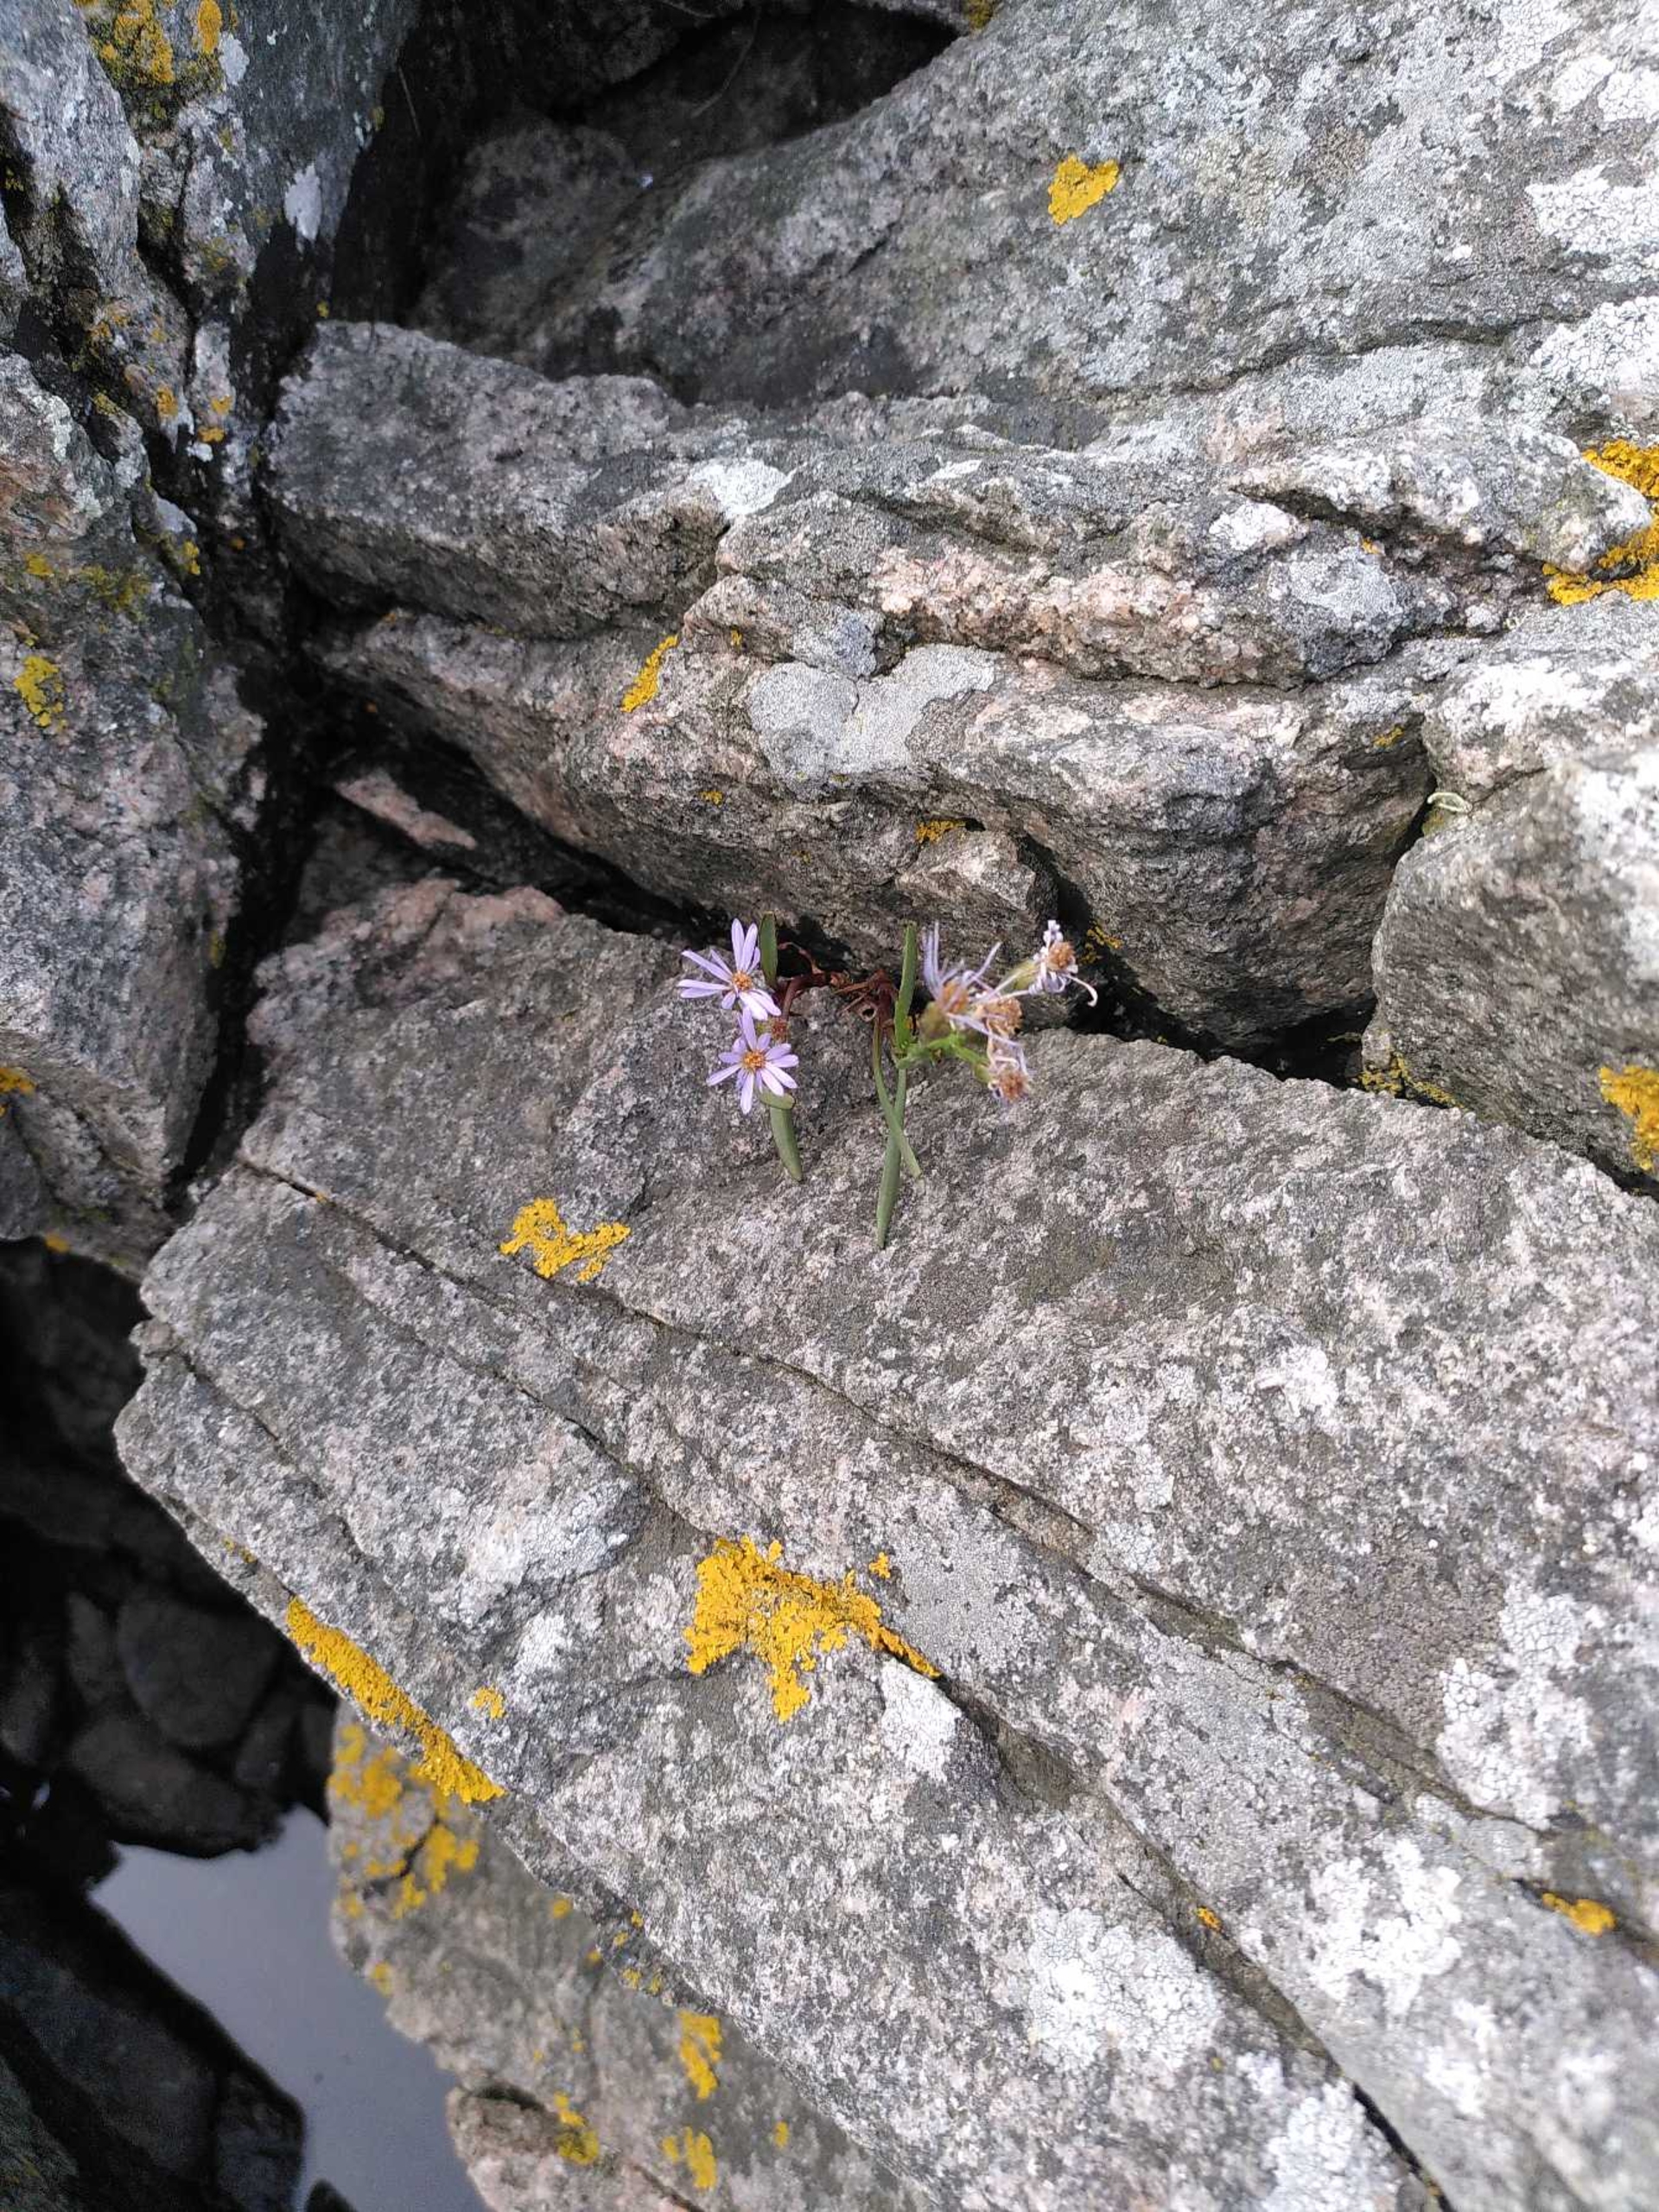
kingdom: Plantae
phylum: Tracheophyta
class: Magnoliopsida
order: Asterales
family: Asteraceae
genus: Tripolium
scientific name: Tripolium pannonicum
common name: Strandasters (underart)
